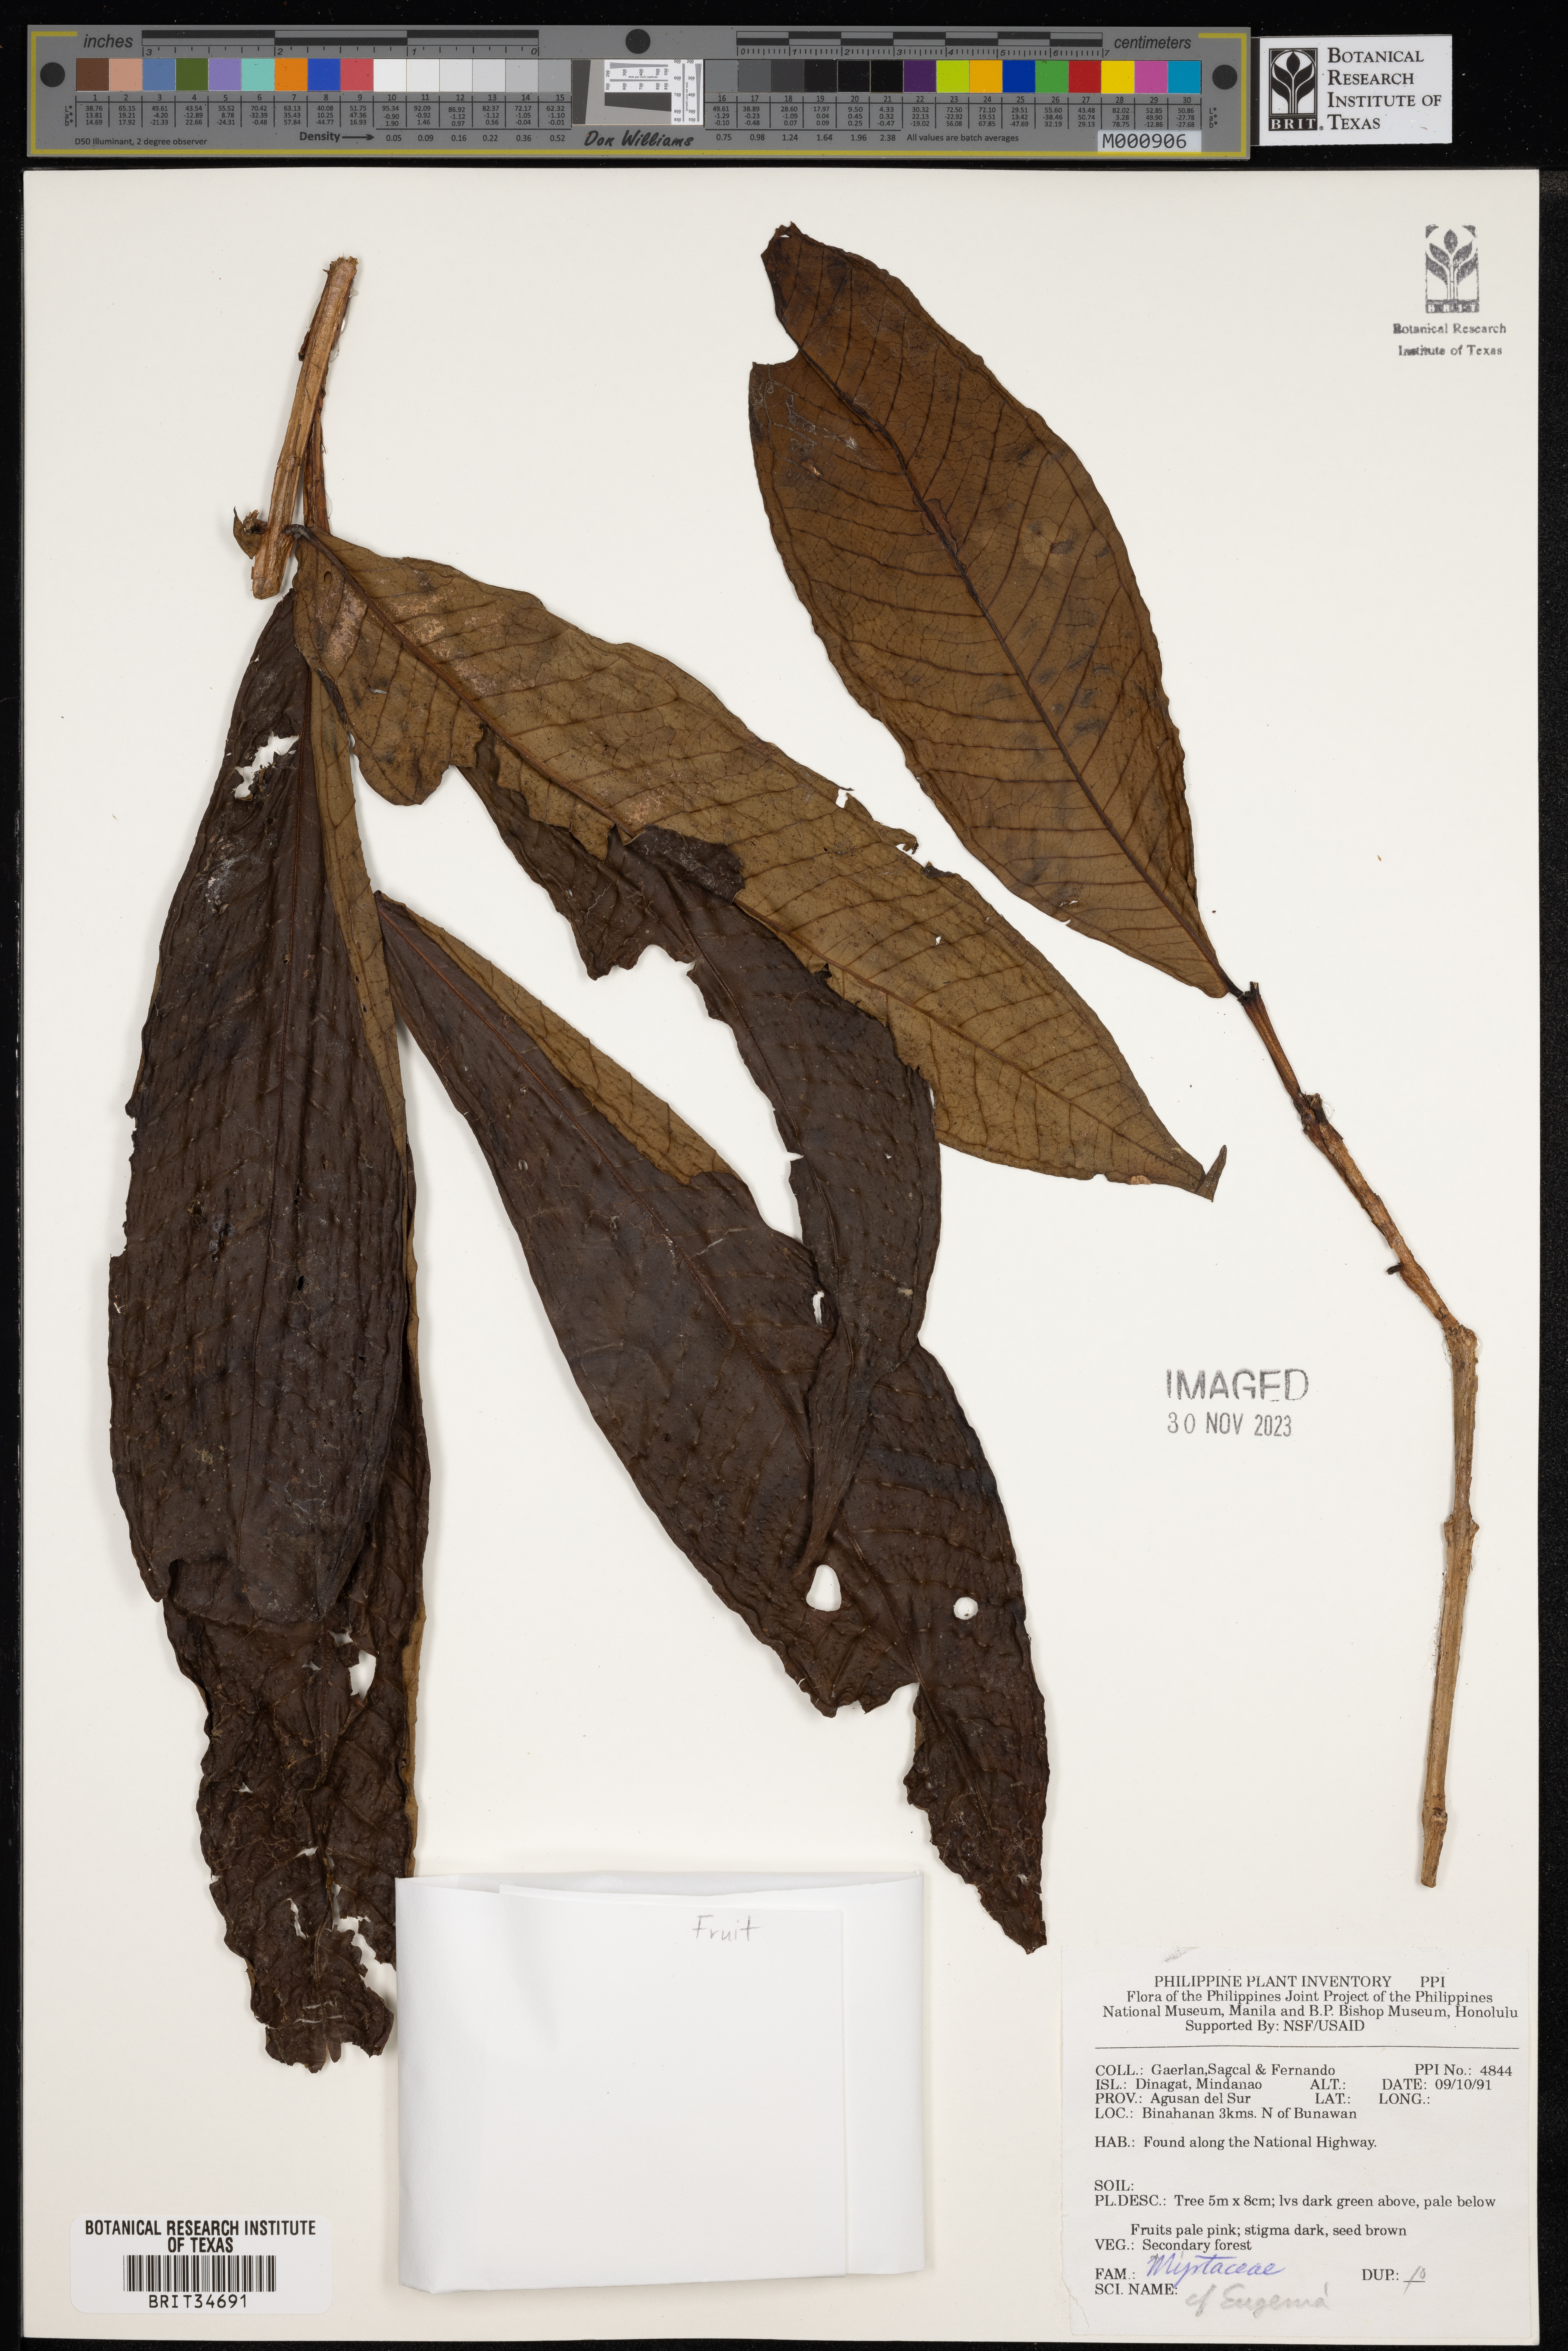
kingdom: Plantae
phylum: Tracheophyta
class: Magnoliopsida
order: Myrtales
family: Myrtaceae
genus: Eugenia
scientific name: Eugenia
